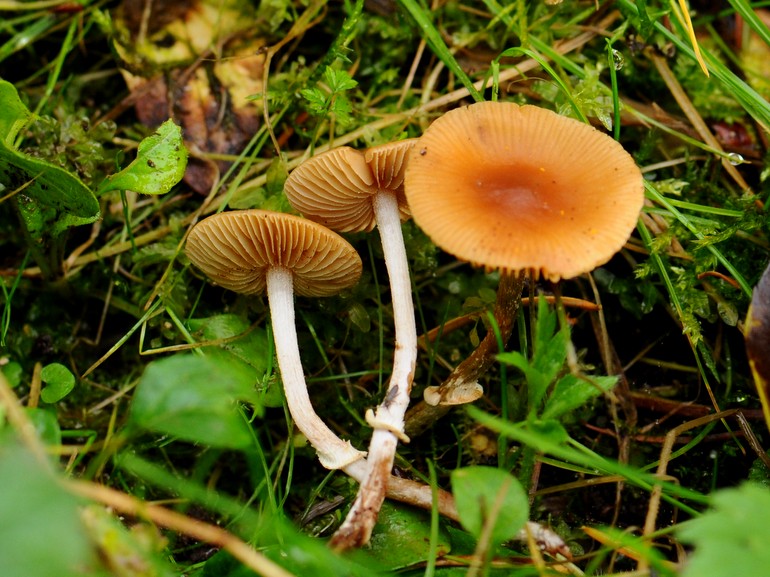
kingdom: Fungi
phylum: Basidiomycota
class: Agaricomycetes
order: Agaricales
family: Bolbitiaceae
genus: Conocybe
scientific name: Conocybe arrhenii
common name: ring-dansehat
